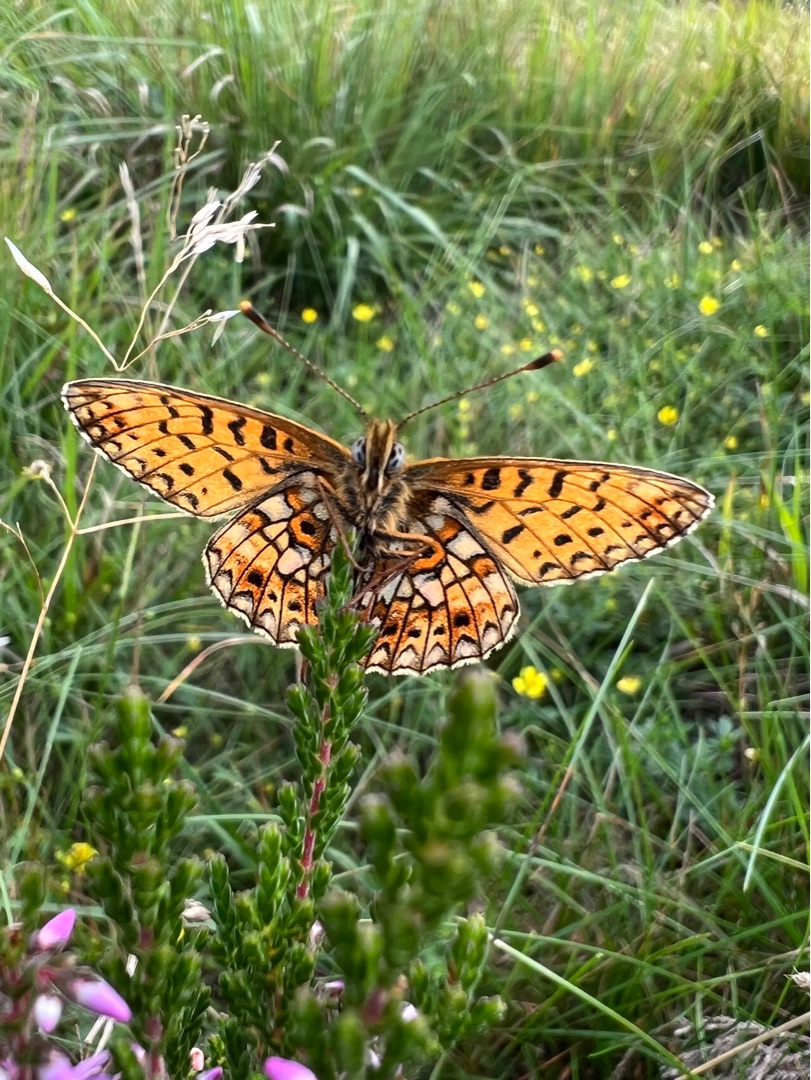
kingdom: Animalia
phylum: Arthropoda
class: Insecta
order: Lepidoptera
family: Nymphalidae
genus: Boloria
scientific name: Boloria selene
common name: Brunlig perlemorsommerfugl
